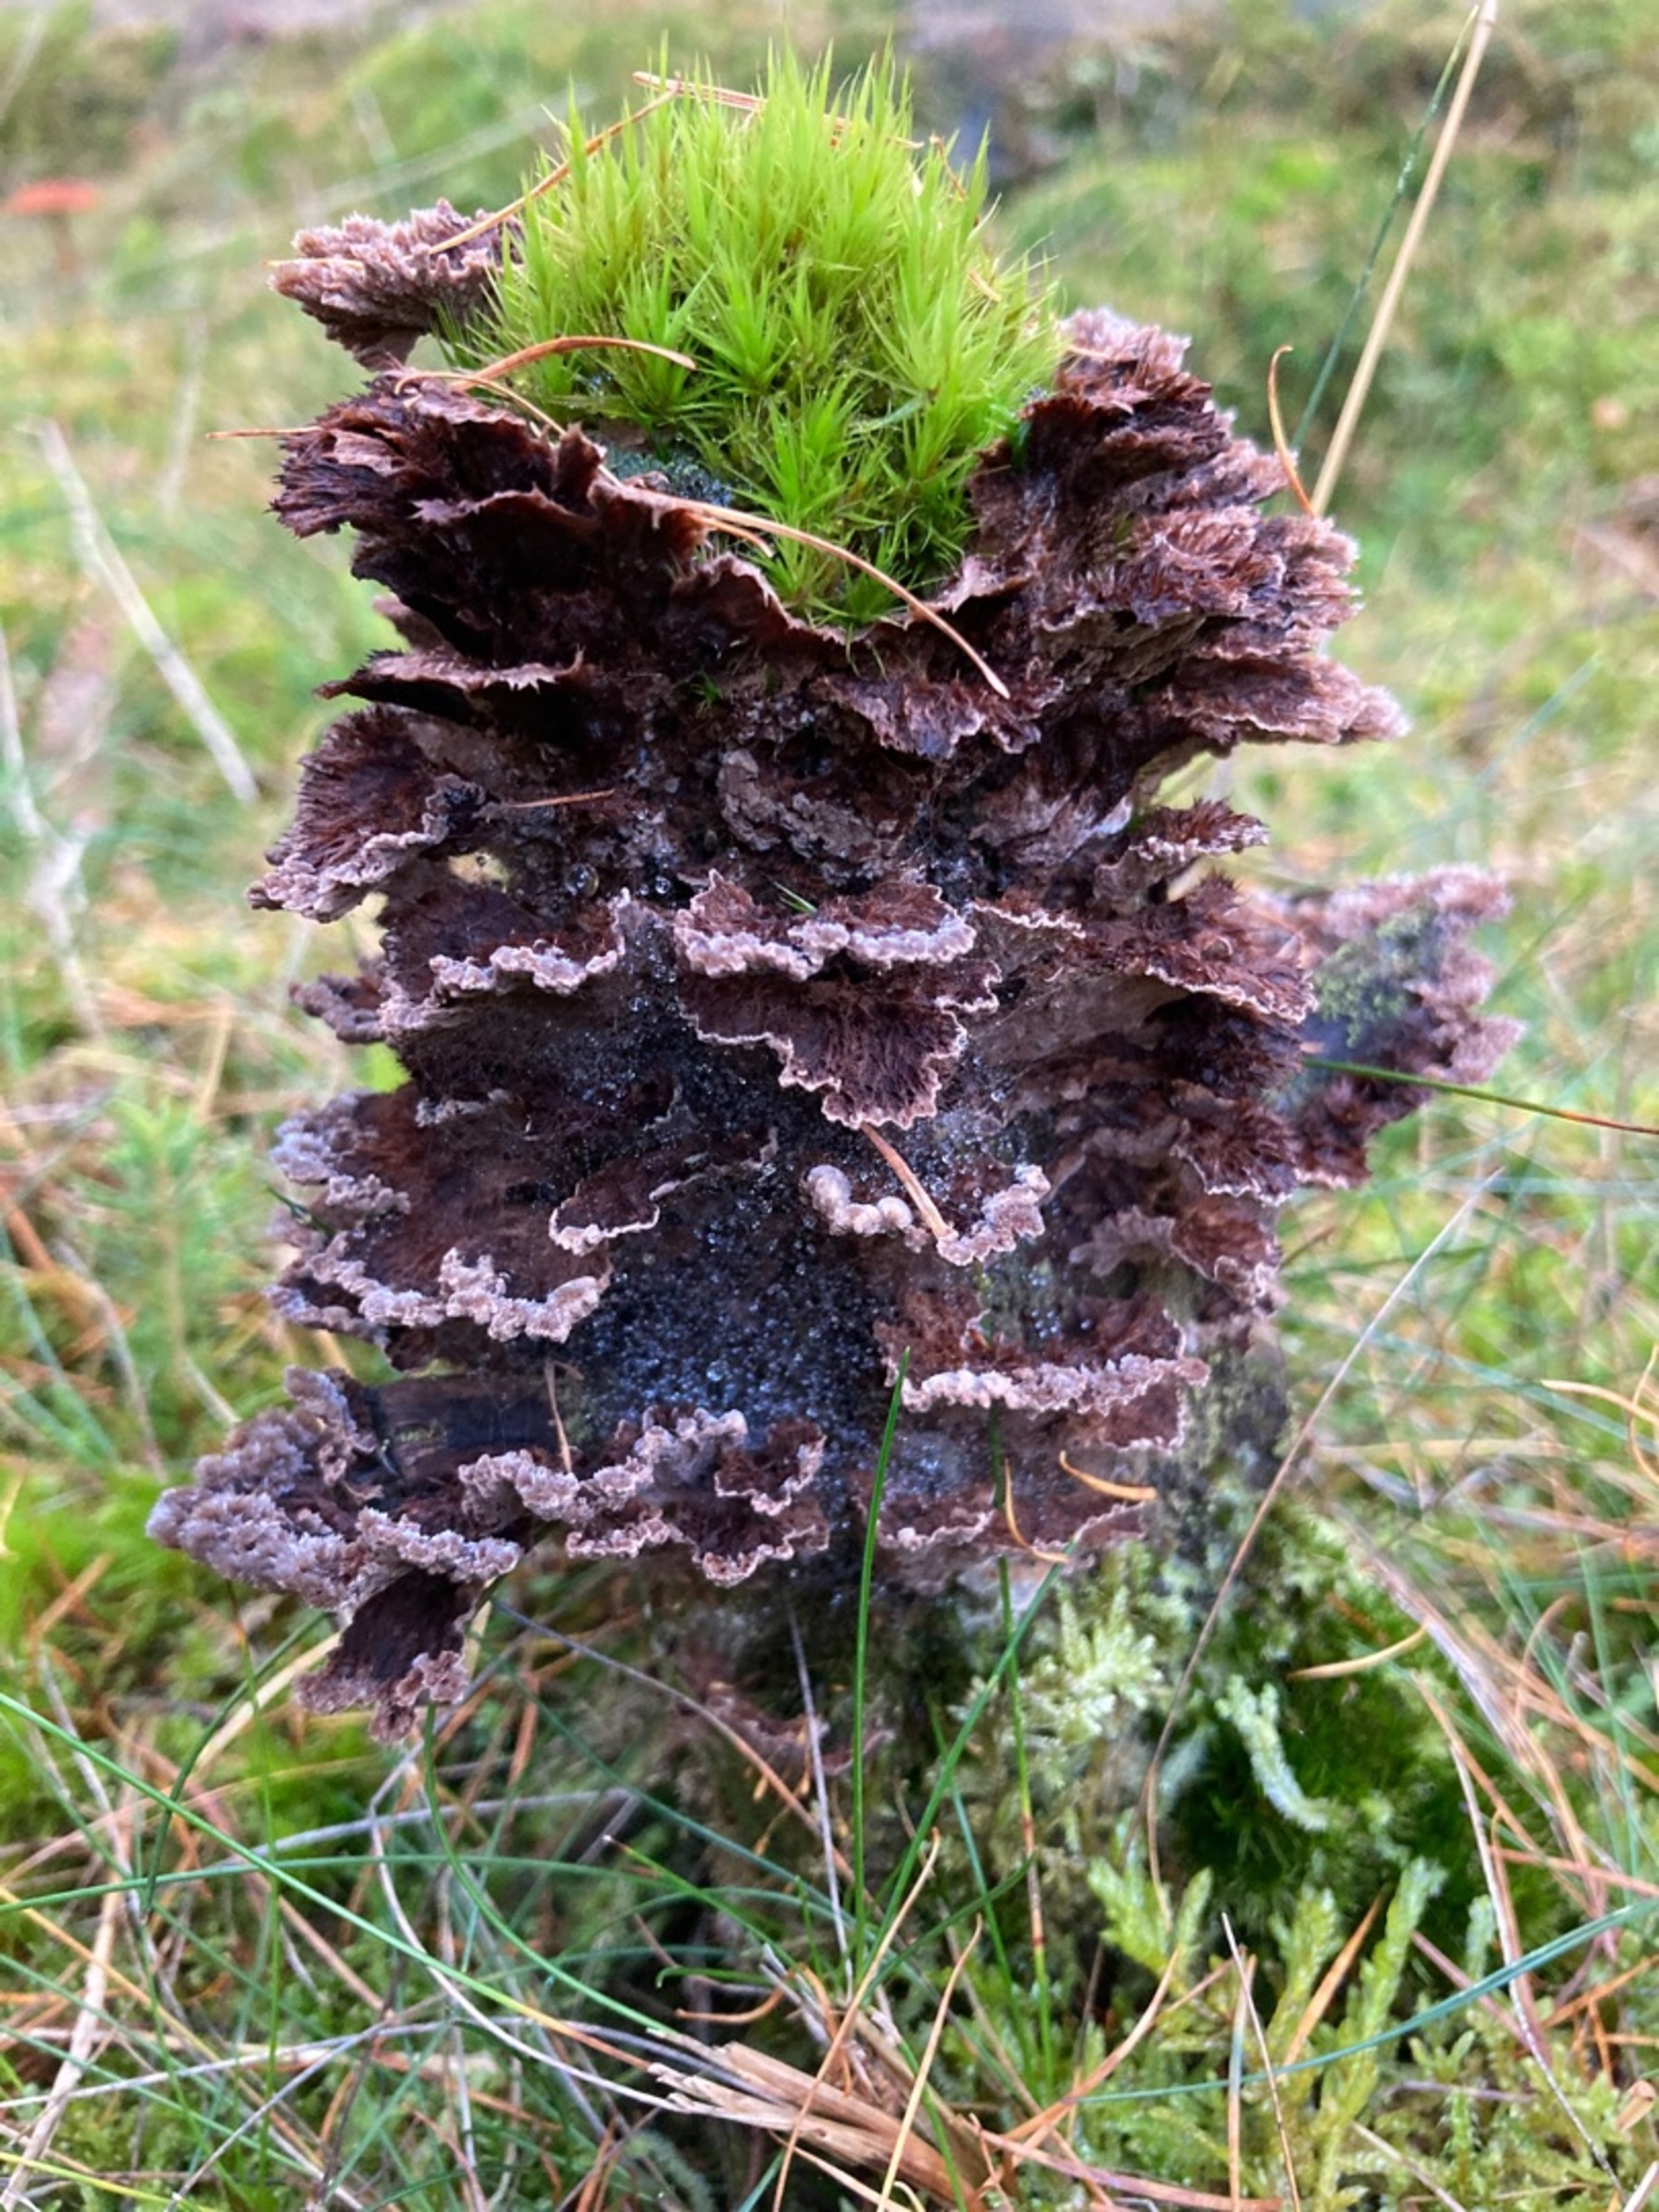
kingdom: Fungi
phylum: Basidiomycota
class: Agaricomycetes
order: Thelephorales
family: Thelephoraceae
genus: Thelephora
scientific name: Thelephora terrestris
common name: Fliget frynsesvamp
